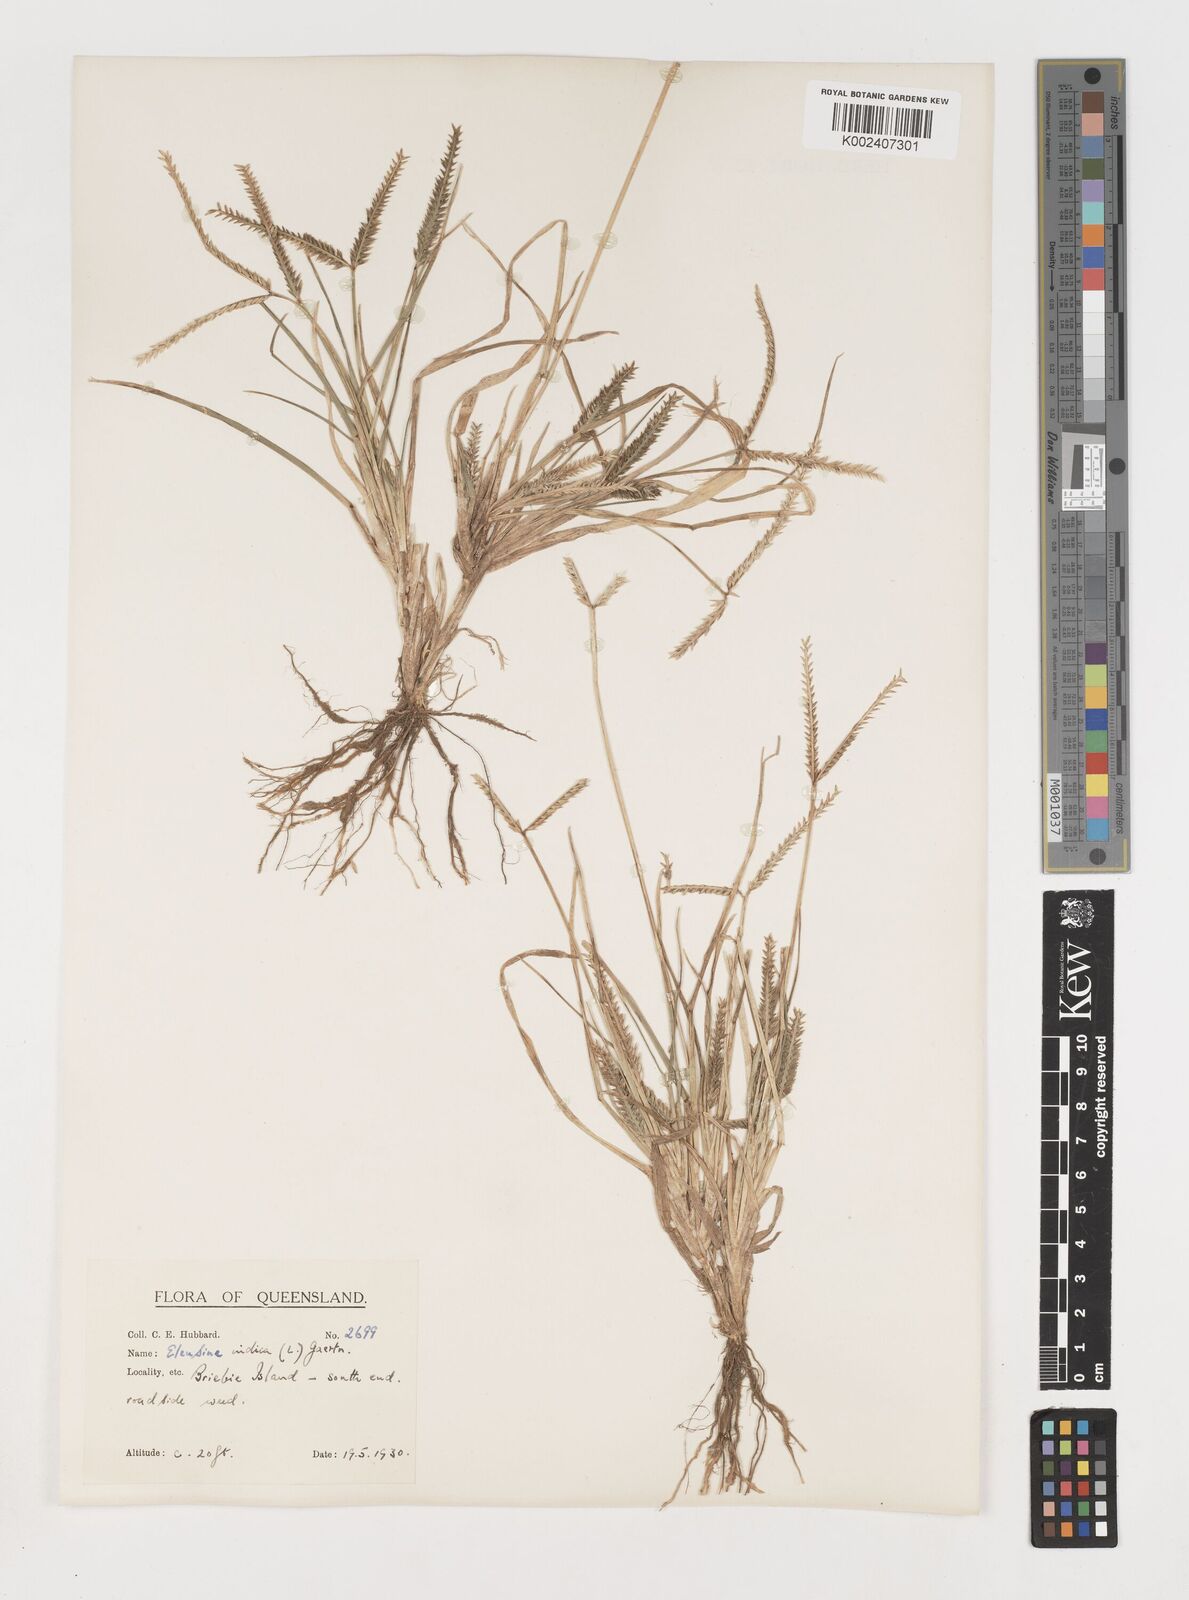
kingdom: Plantae
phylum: Tracheophyta
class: Liliopsida
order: Poales
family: Poaceae
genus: Eleusine
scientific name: Eleusine indica
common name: Yard-grass
